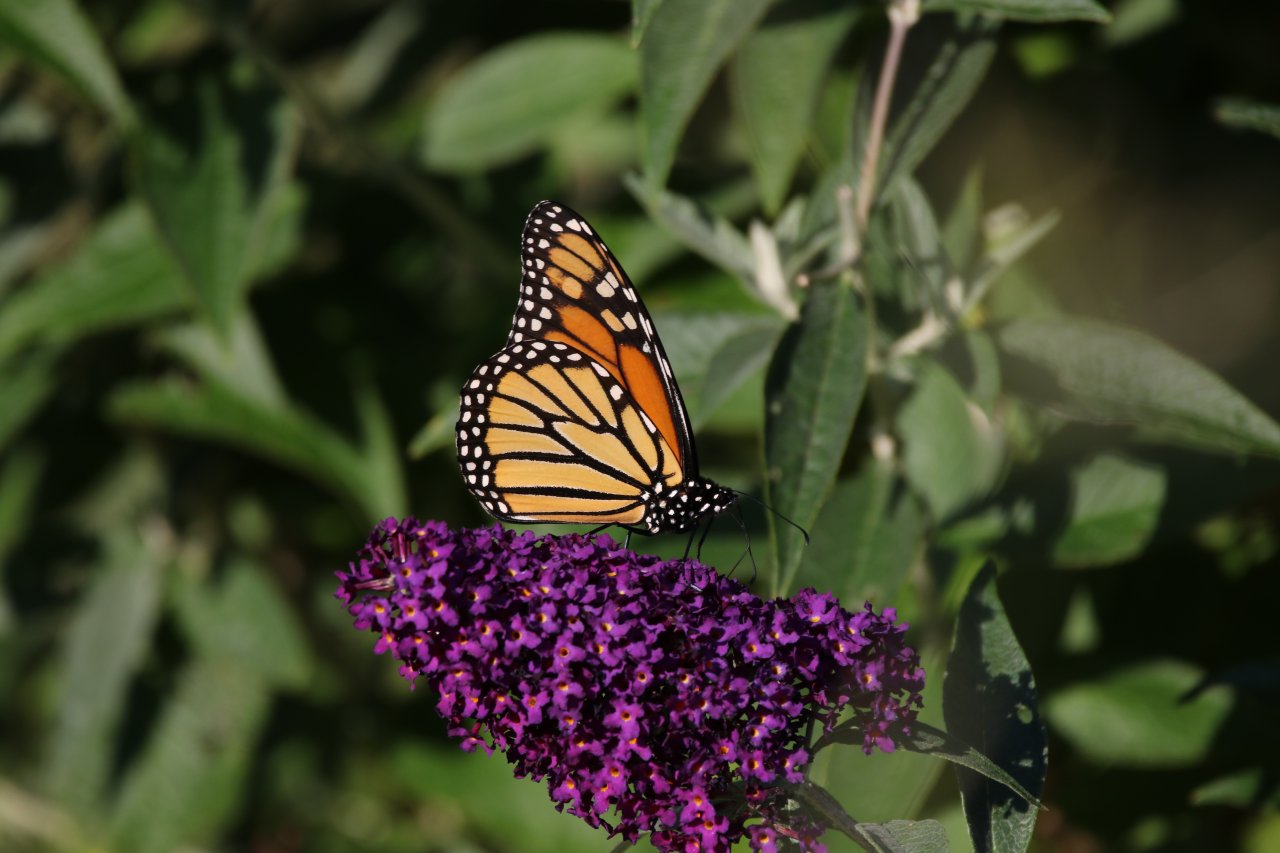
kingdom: Animalia
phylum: Arthropoda
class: Insecta
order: Lepidoptera
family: Nymphalidae
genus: Danaus
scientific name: Danaus plexippus
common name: Monarch
